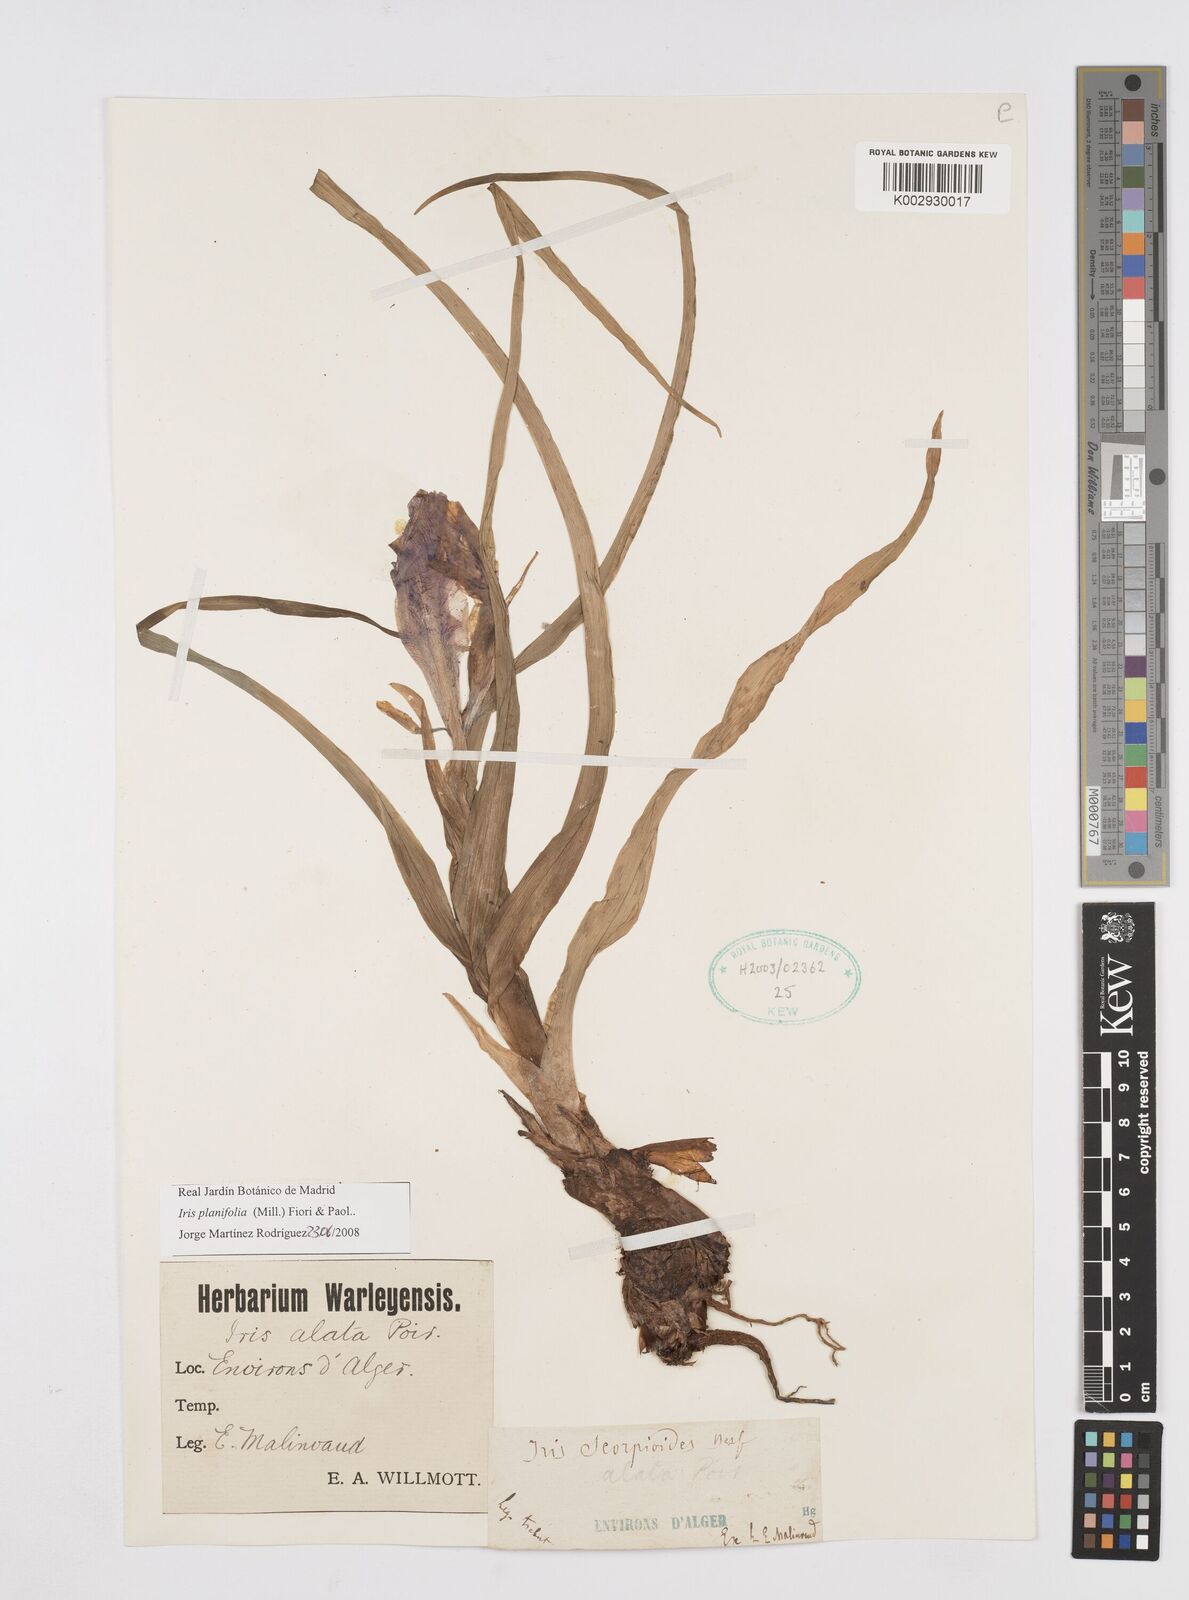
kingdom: Plantae
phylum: Tracheophyta
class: Liliopsida
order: Asparagales
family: Iridaceae
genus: Iris
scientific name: Iris planifolia
